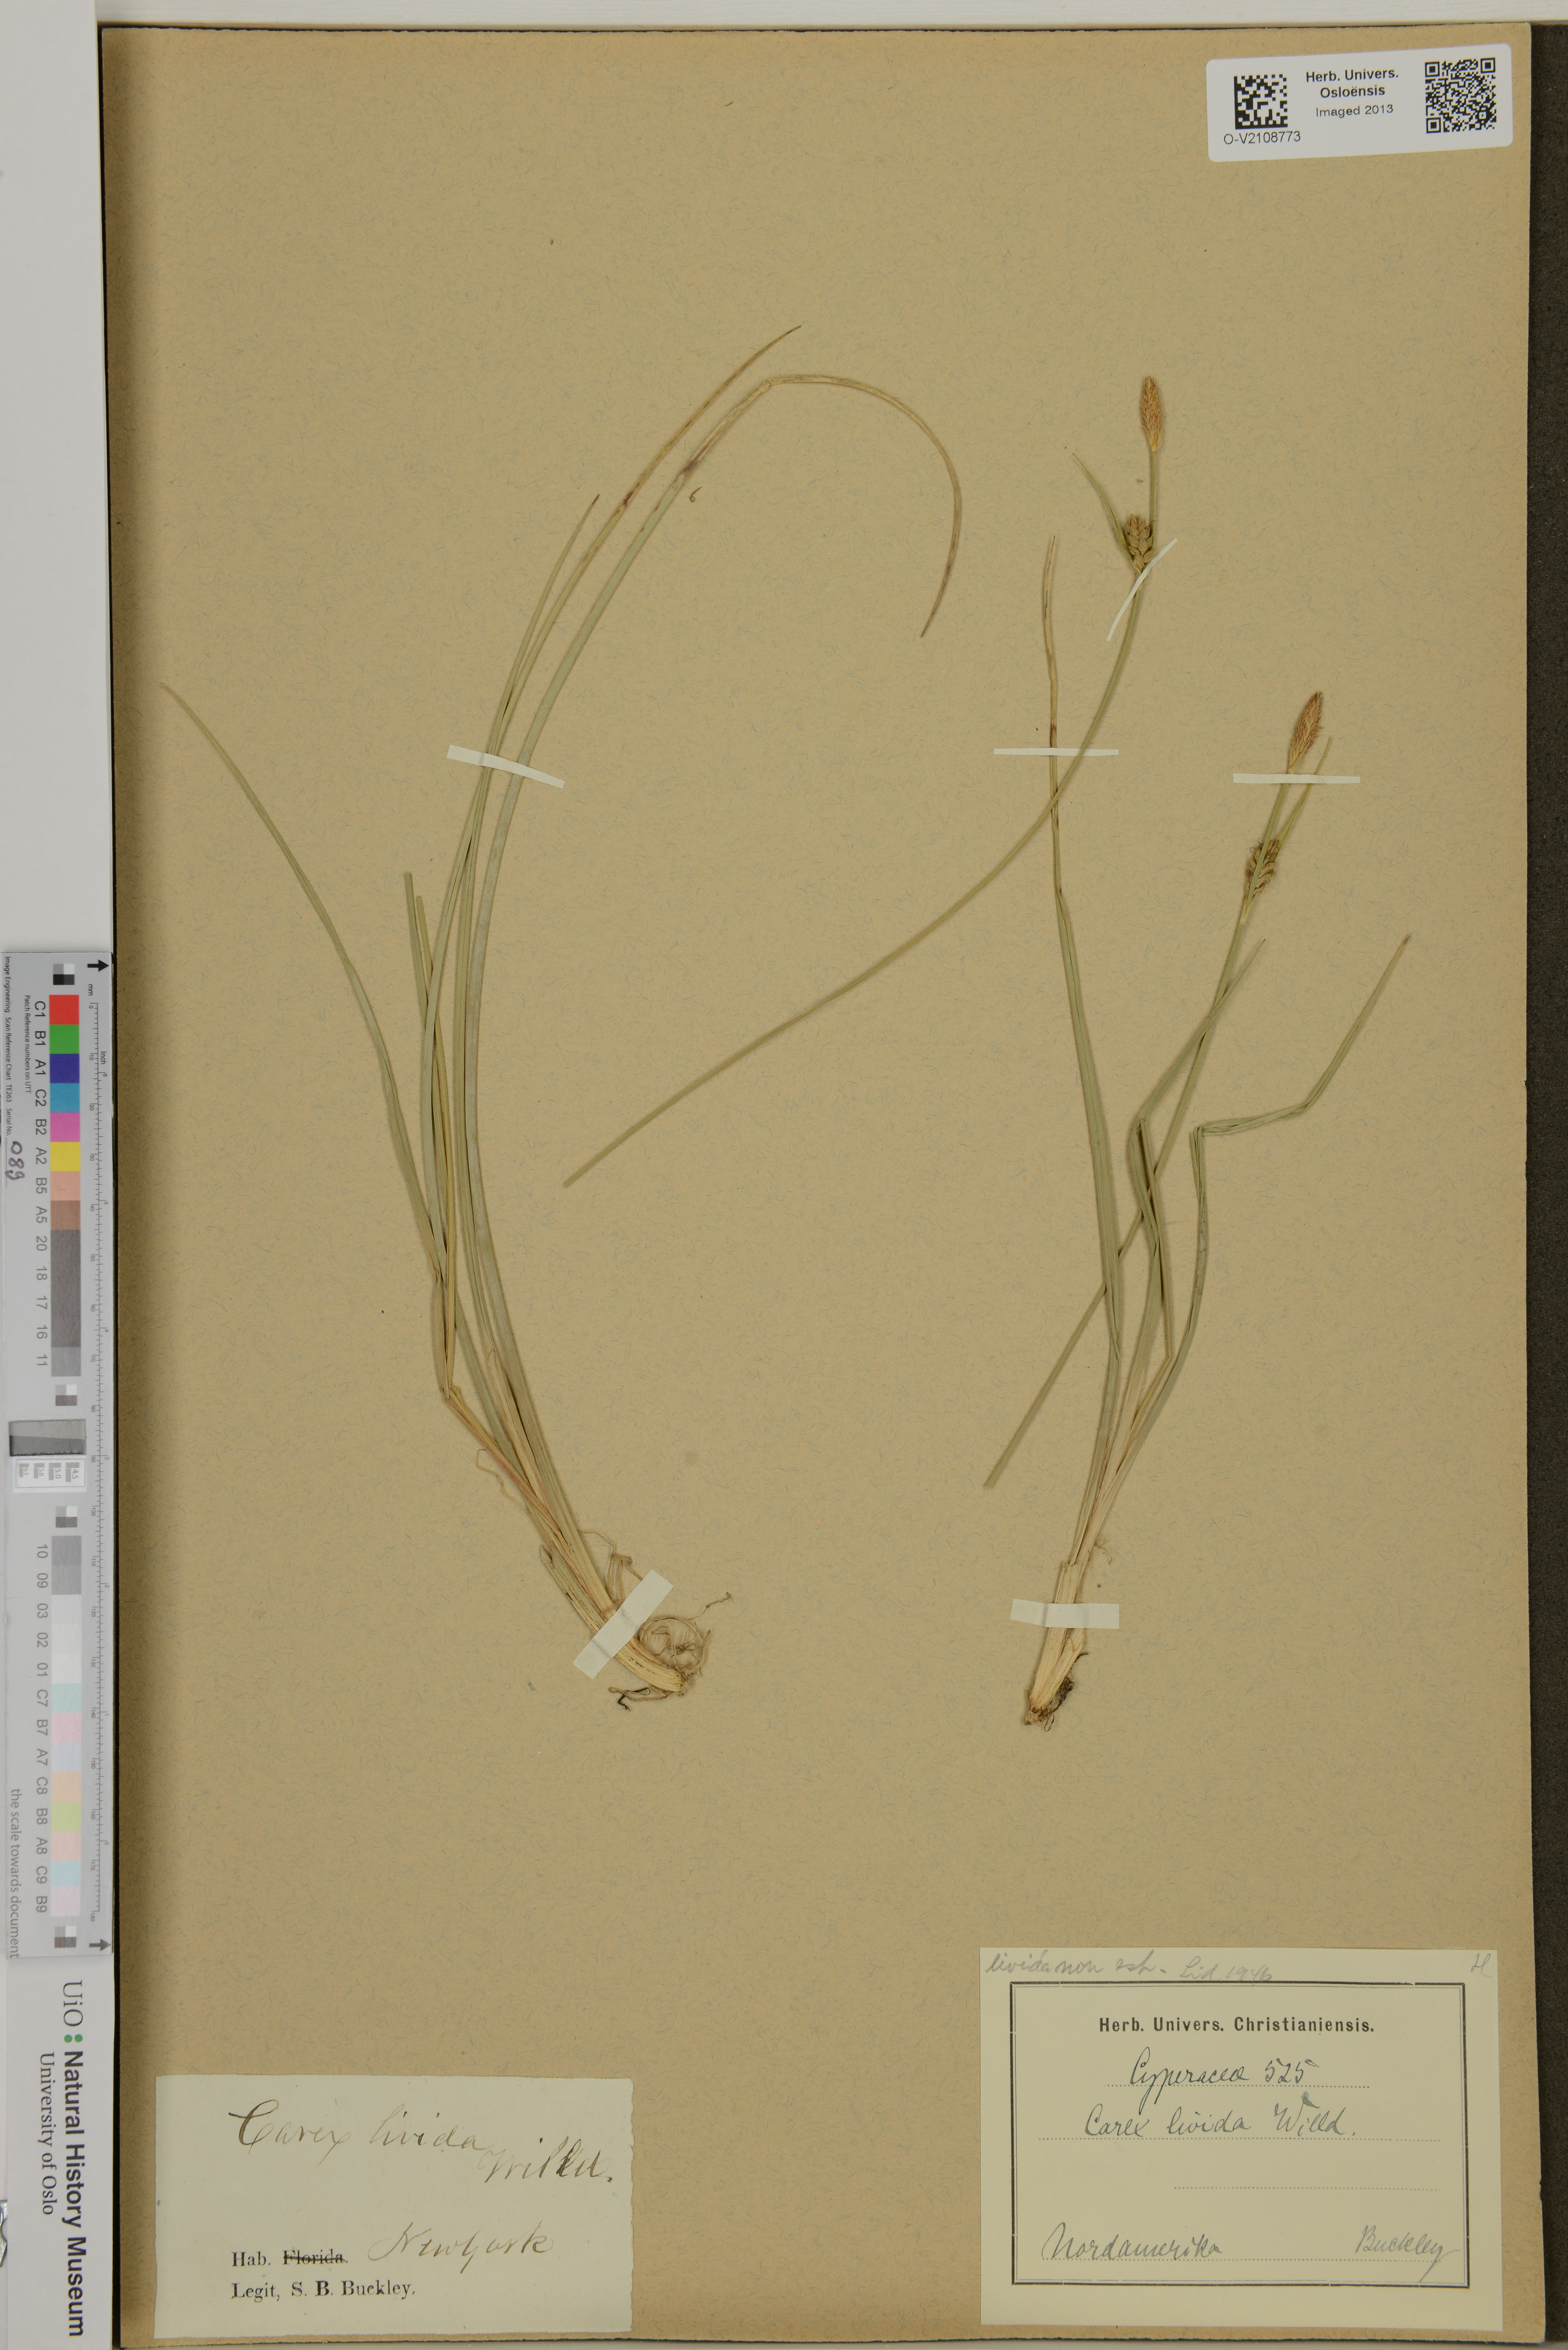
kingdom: Plantae
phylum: Tracheophyta
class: Liliopsida
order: Poales
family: Cyperaceae
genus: Carex
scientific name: Carex livida
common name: Livid sedge
